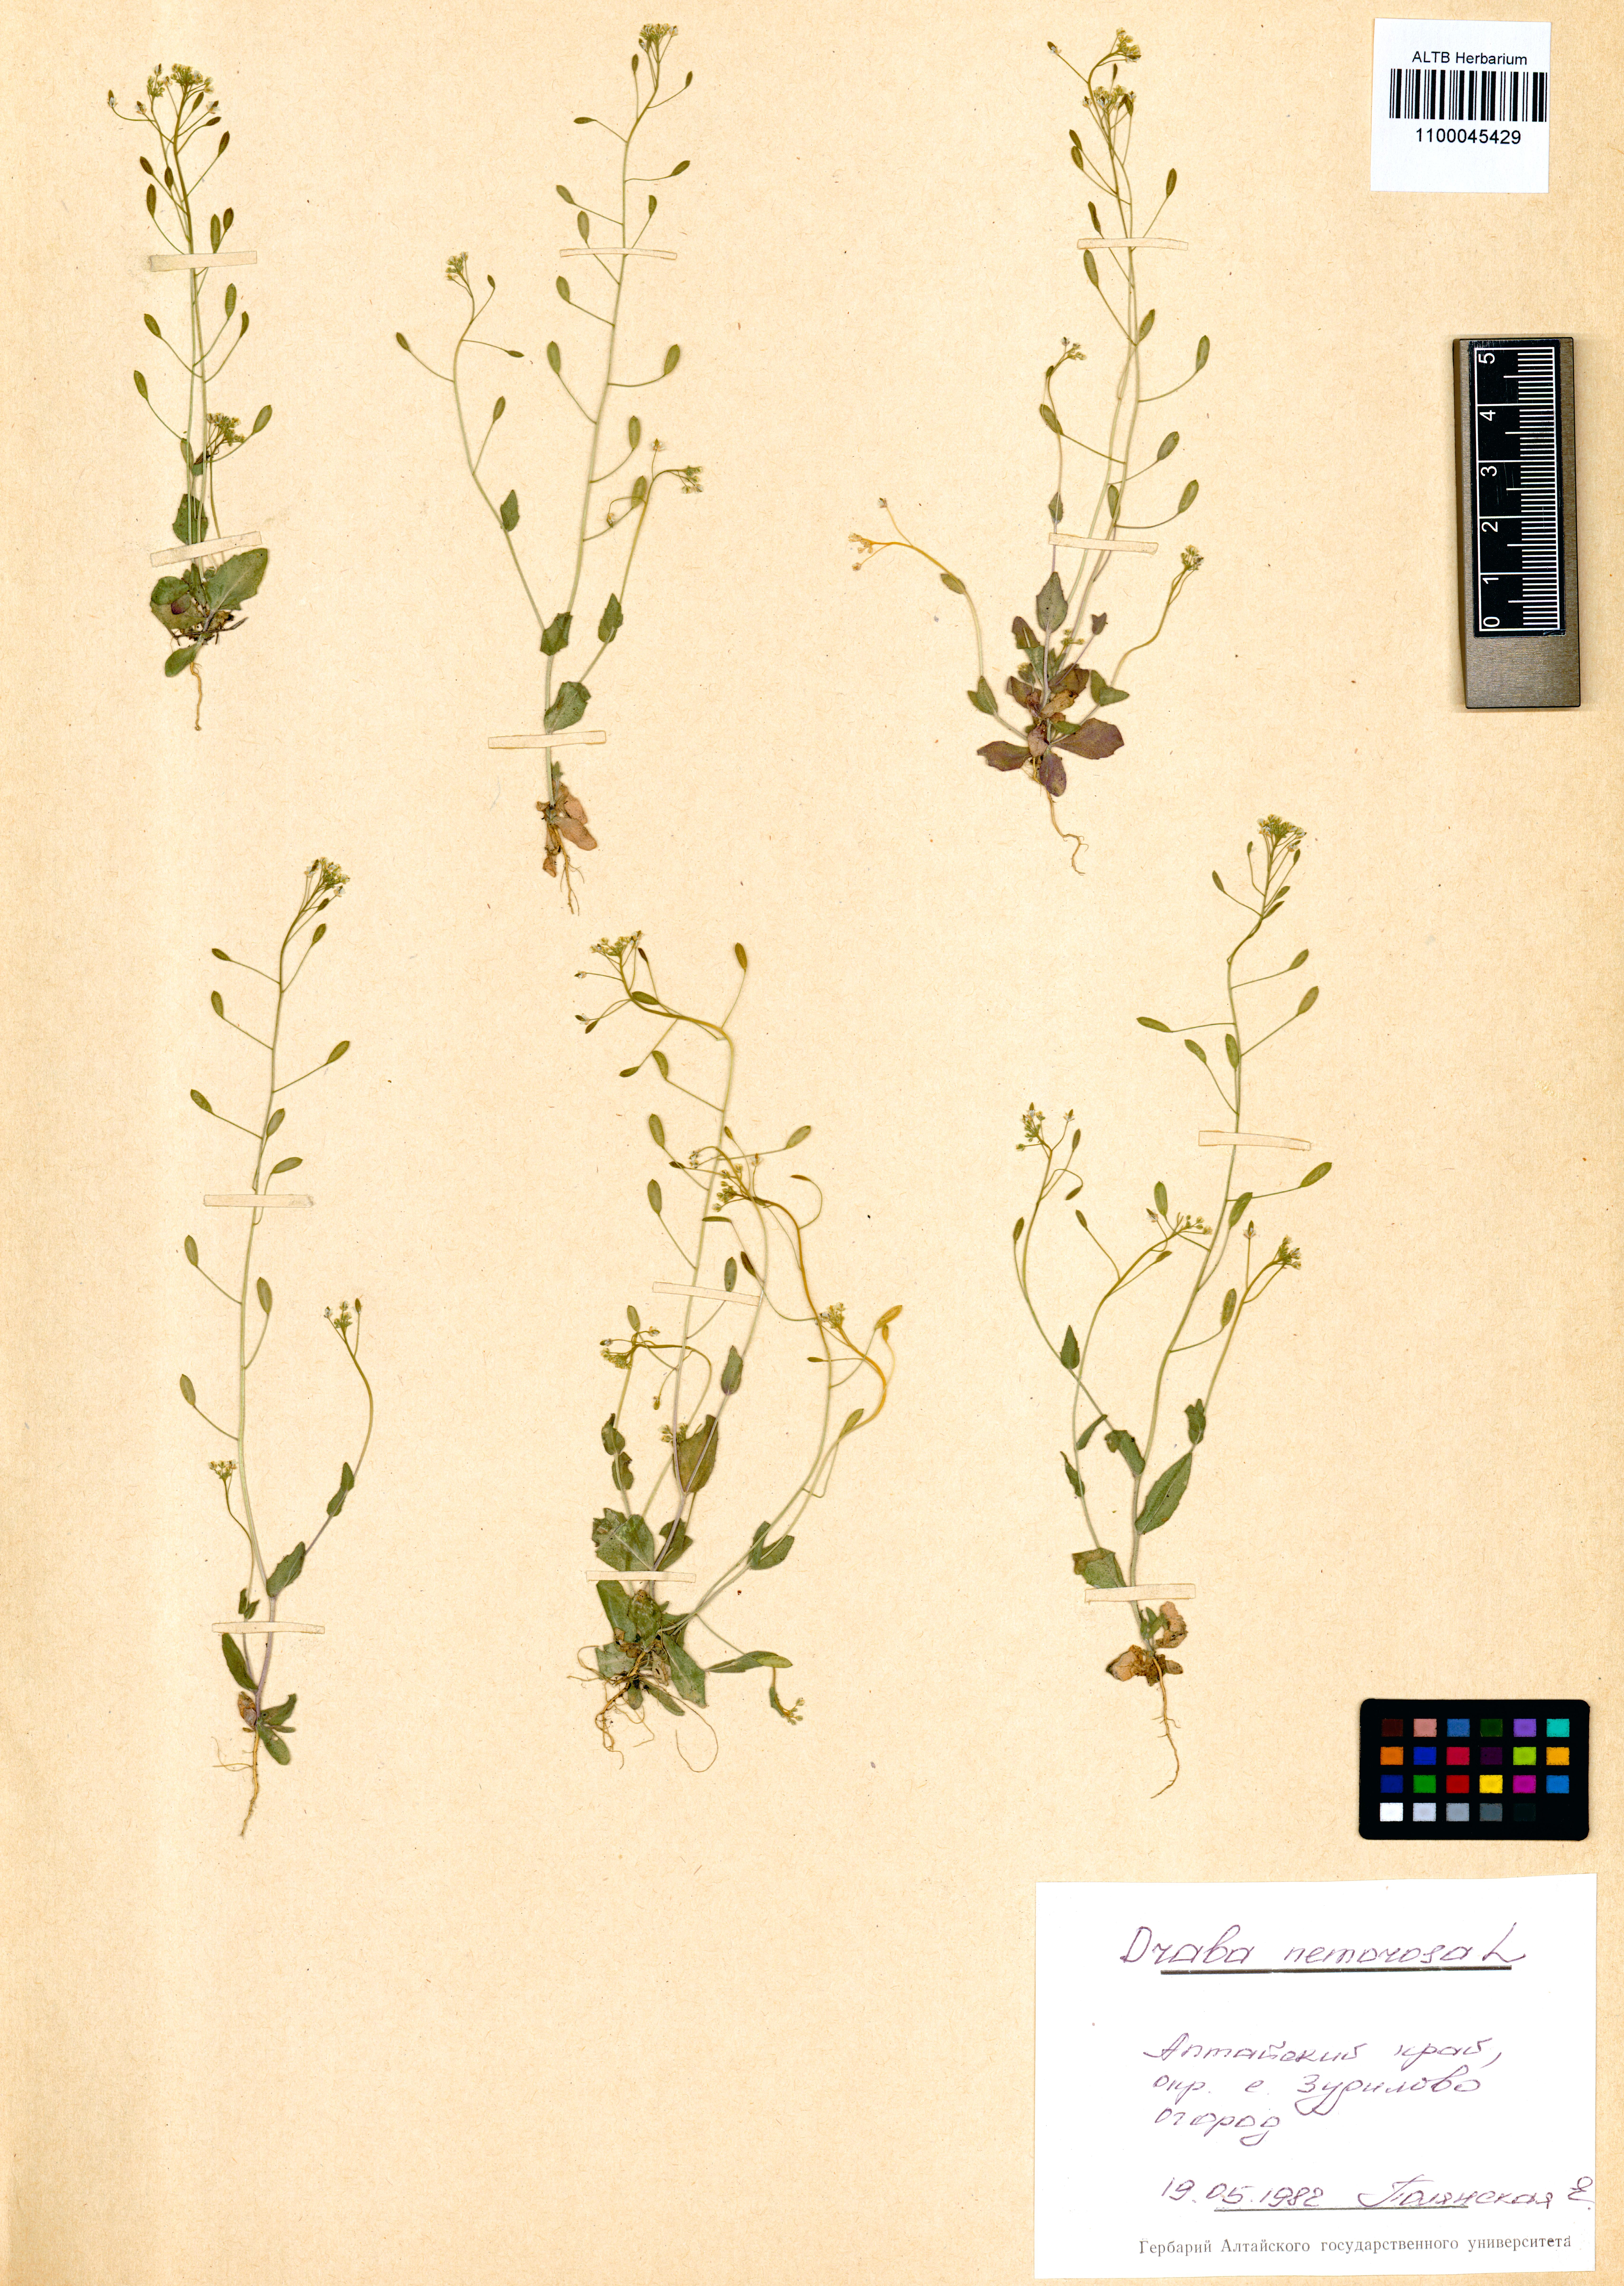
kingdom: Plantae
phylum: Tracheophyta
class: Magnoliopsida
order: Brassicales
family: Brassicaceae
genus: Draba
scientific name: Draba nemorosa
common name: Wood whitlow-grass
